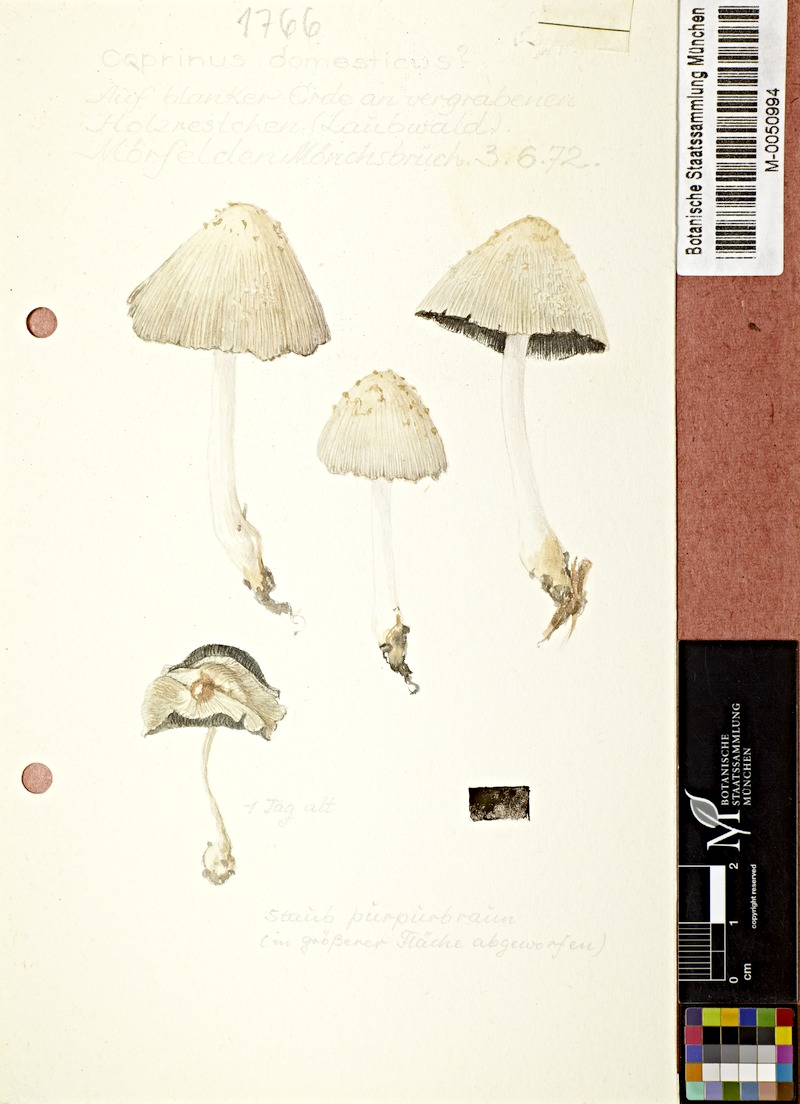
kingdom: Fungi
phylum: Basidiomycota
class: Agaricomycetes
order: Agaricales
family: Psathyrellaceae
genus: Coprinellus
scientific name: Coprinellus domesticus
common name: Firerug inkcap
